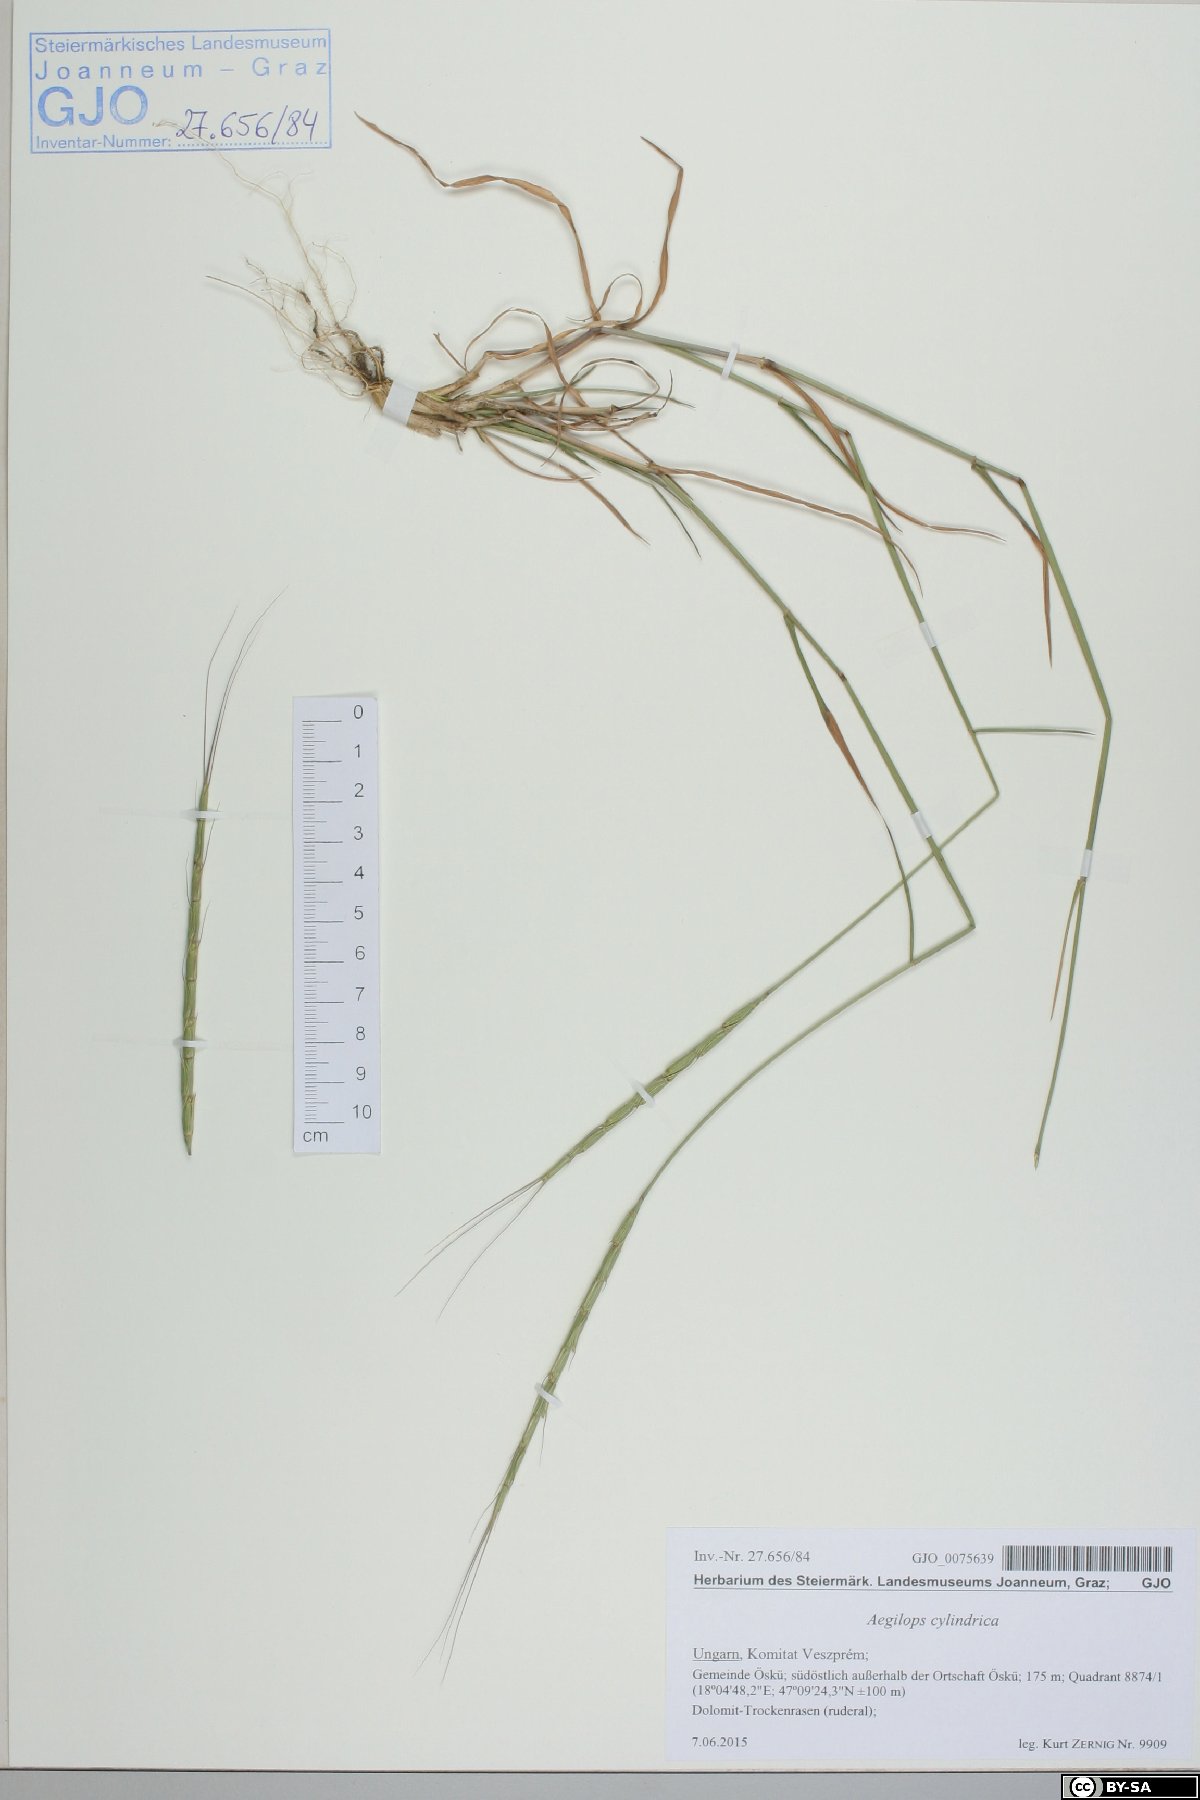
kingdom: Plantae
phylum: Tracheophyta
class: Liliopsida
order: Poales
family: Poaceae
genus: Aegilops
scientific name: Aegilops cylindrica
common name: Jointed goatgrass
